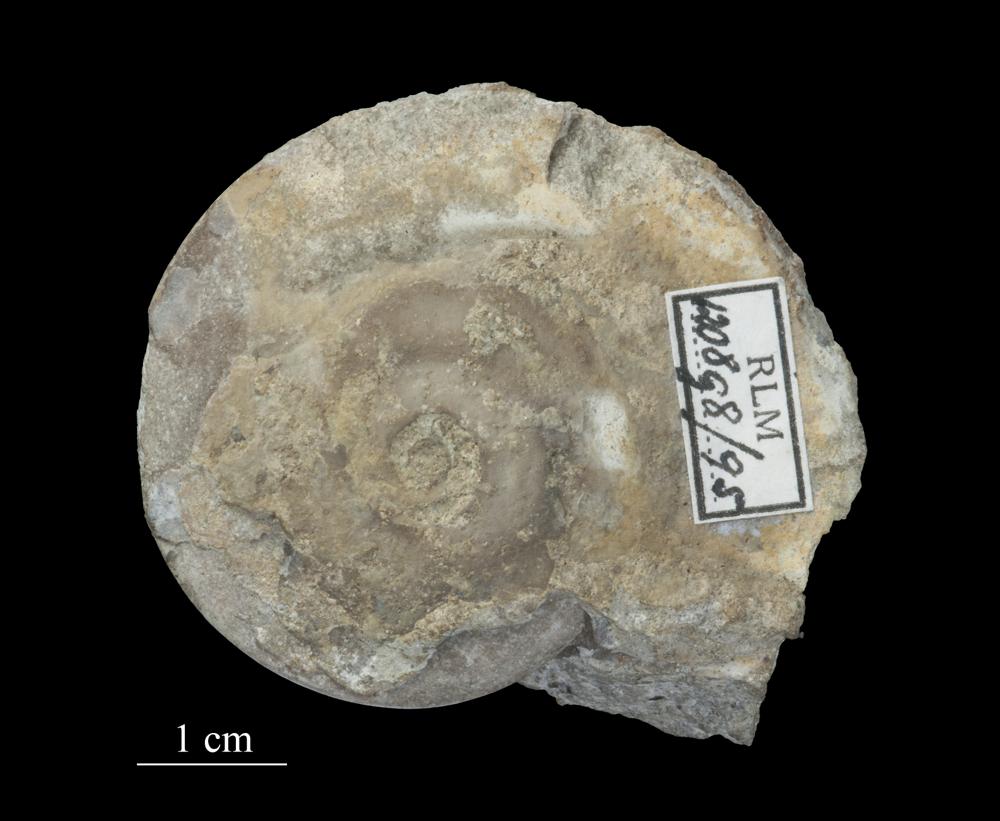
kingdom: Animalia
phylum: Mollusca
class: Gastropoda
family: Lesueurillidae
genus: Pararaphistoma
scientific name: Pararaphistoma Helicites qualteriata
